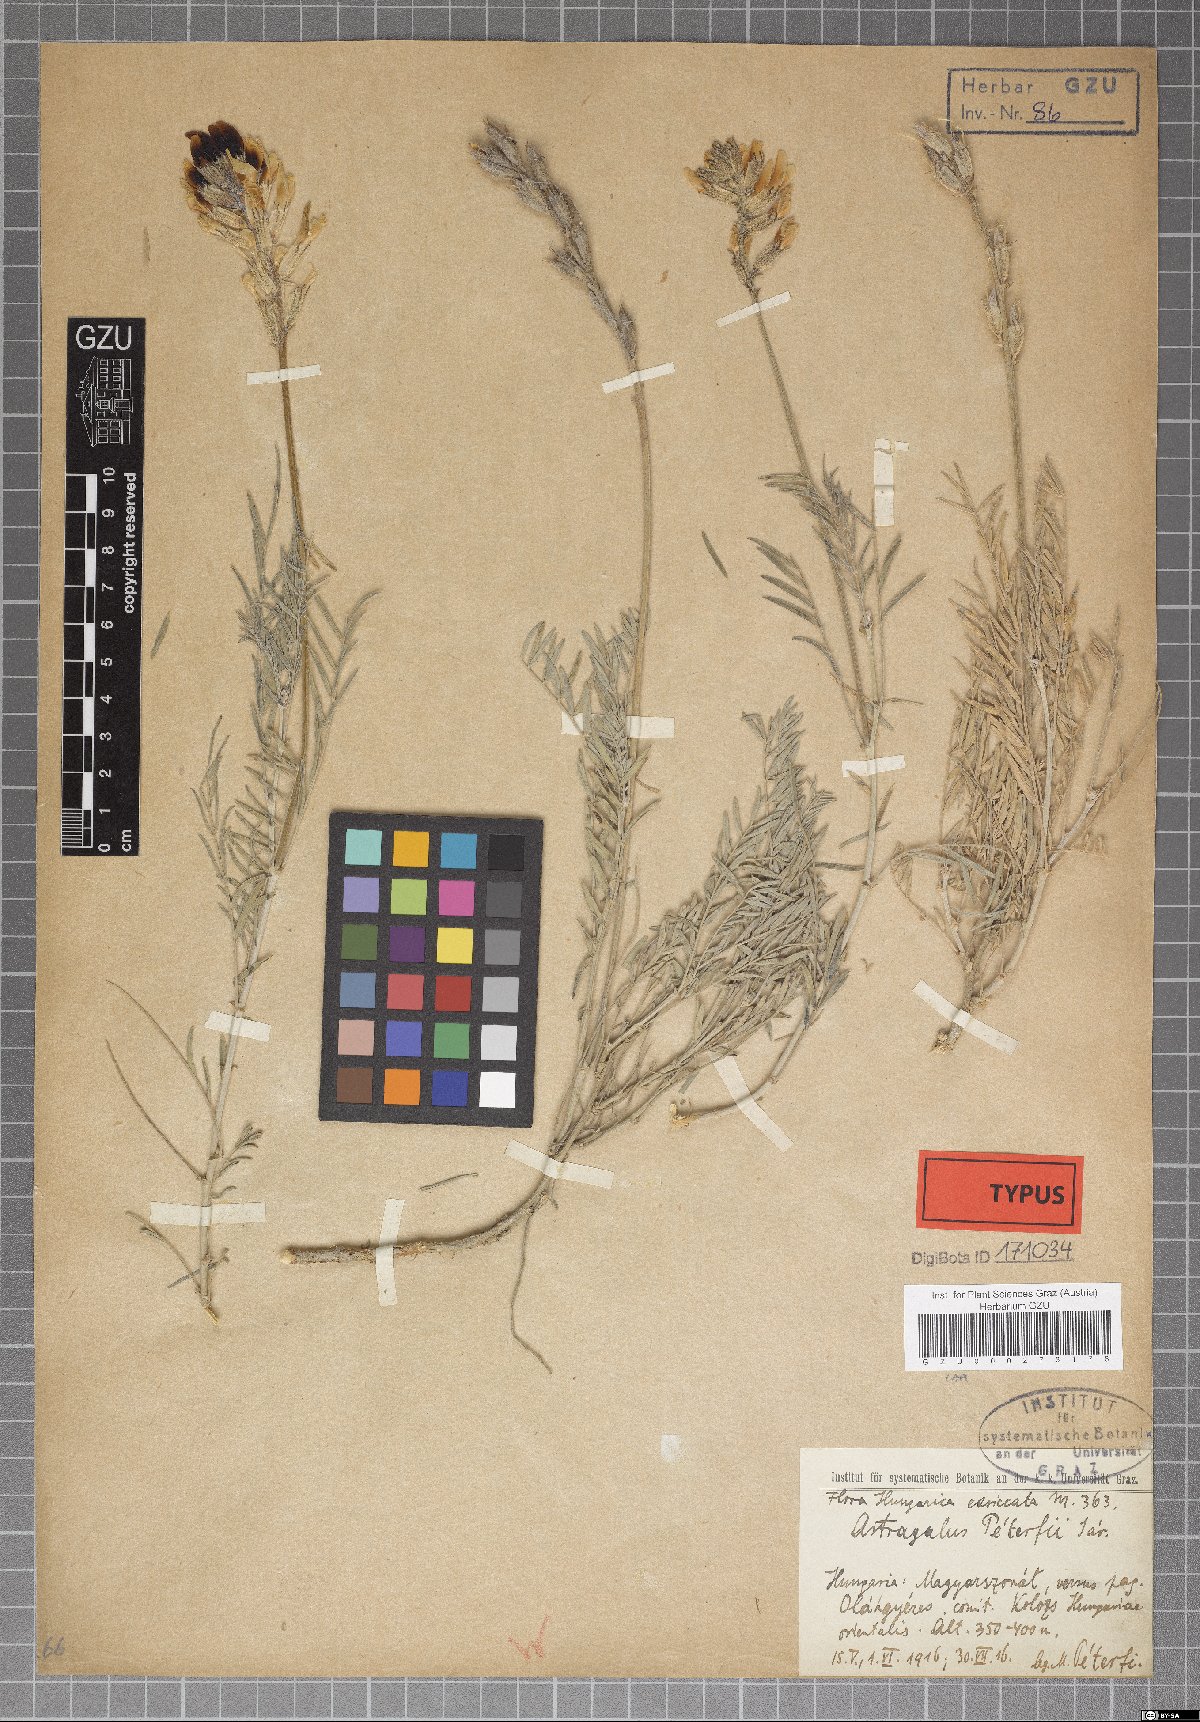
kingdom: Plantae
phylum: Tracheophyta
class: Magnoliopsida
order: Fabales
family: Fabaceae
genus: Astragalus
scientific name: Astragalus peterfii
